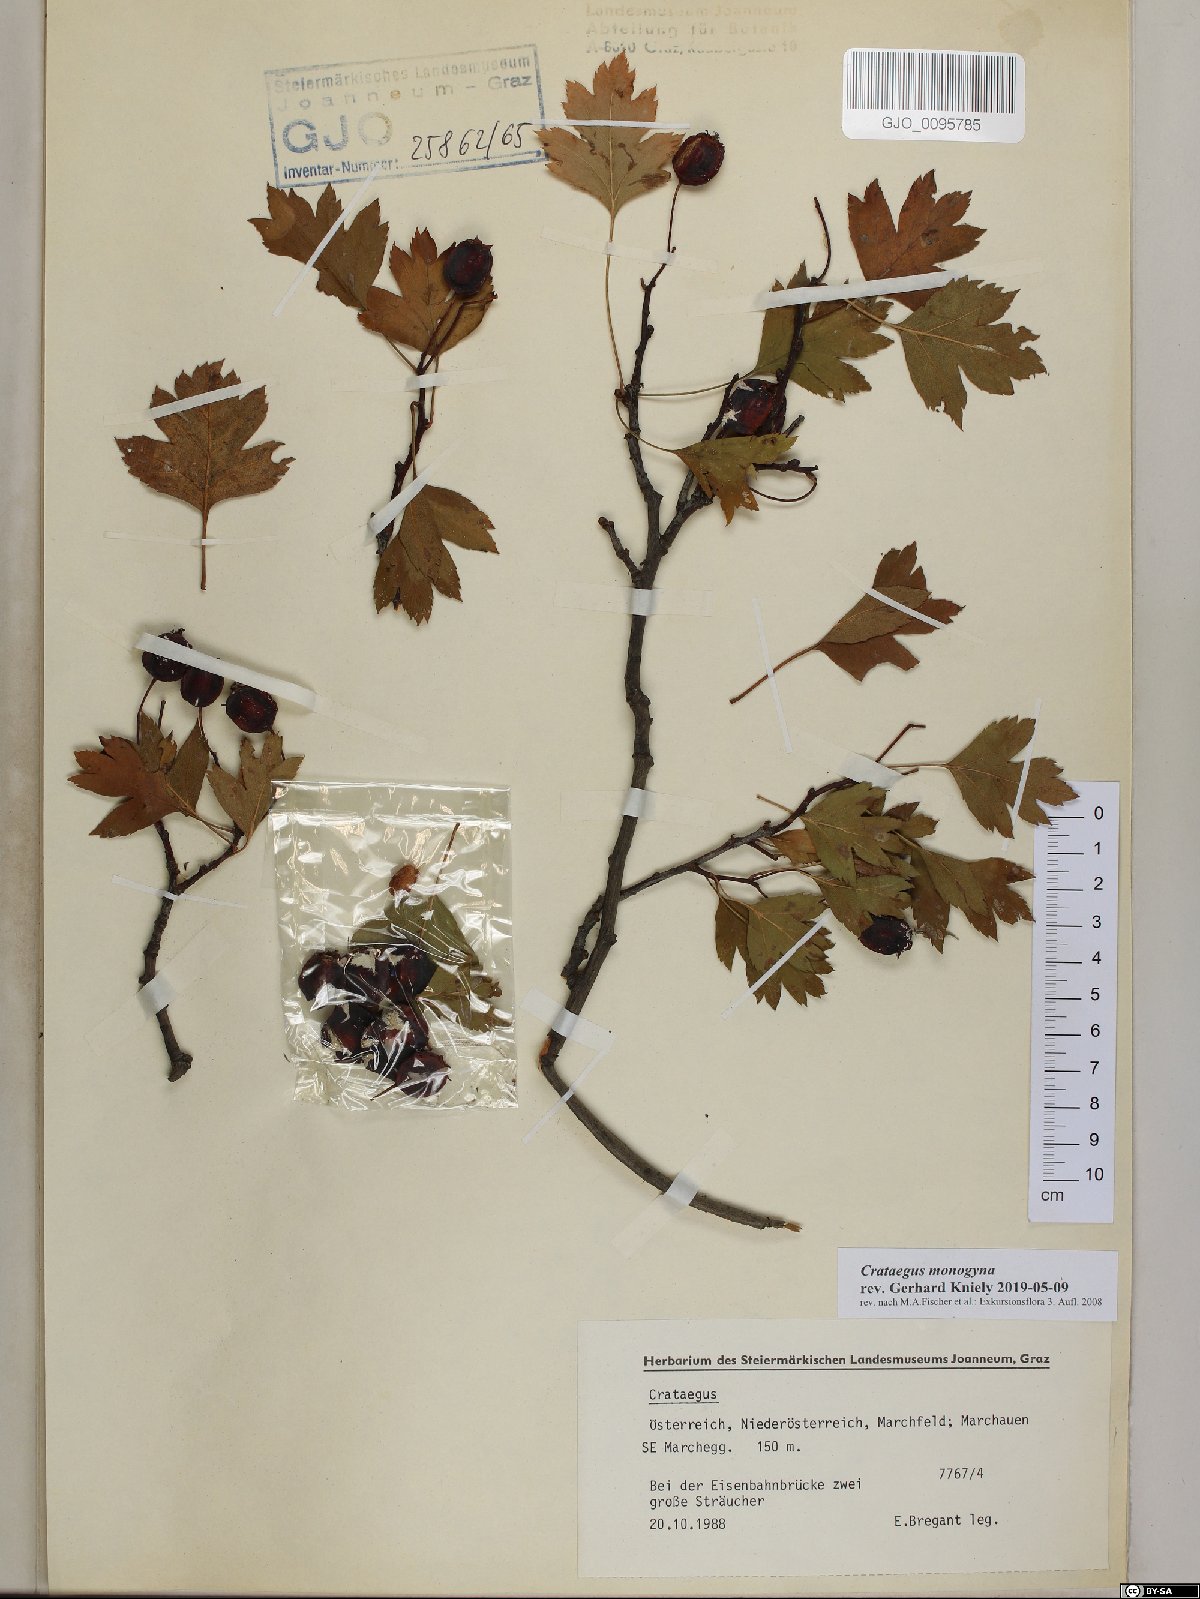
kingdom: Plantae
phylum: Tracheophyta
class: Magnoliopsida
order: Rosales
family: Rosaceae
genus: Crataegus
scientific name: Crataegus monogyna
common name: Hawthorn
